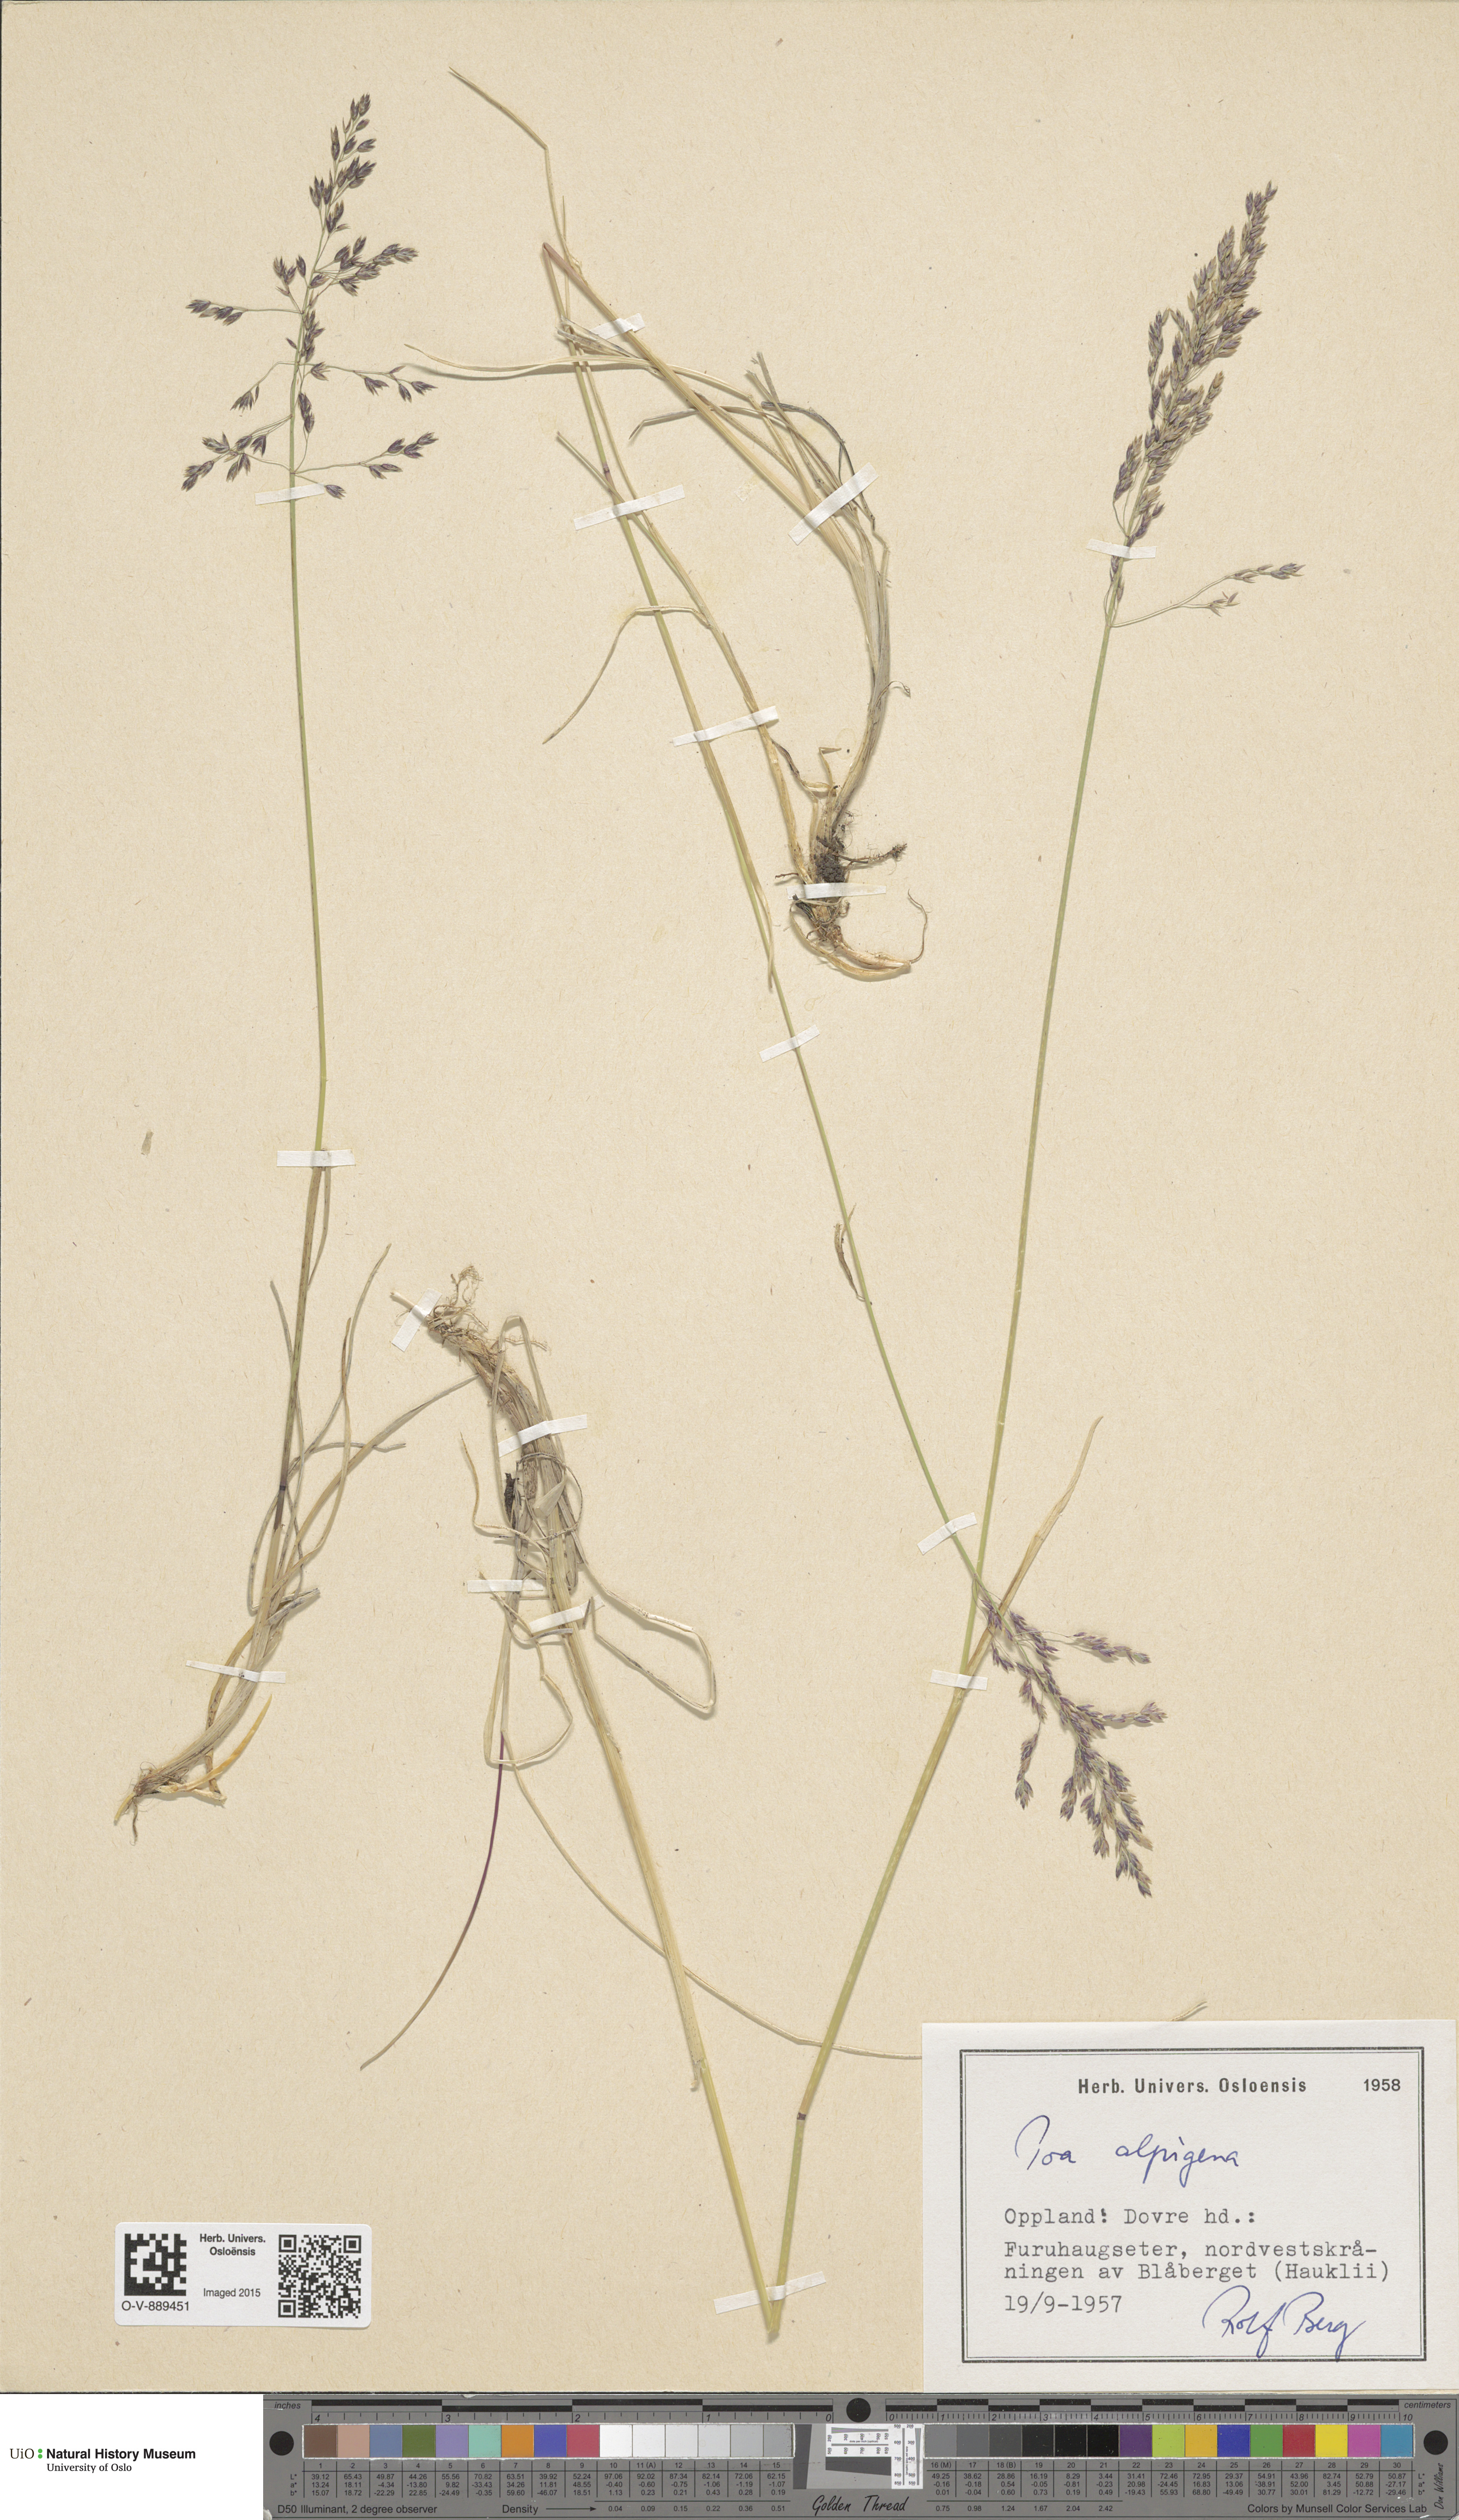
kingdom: Plantae
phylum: Tracheophyta
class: Liliopsida
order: Poales
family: Poaceae
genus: Poa
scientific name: Poa alpigena
